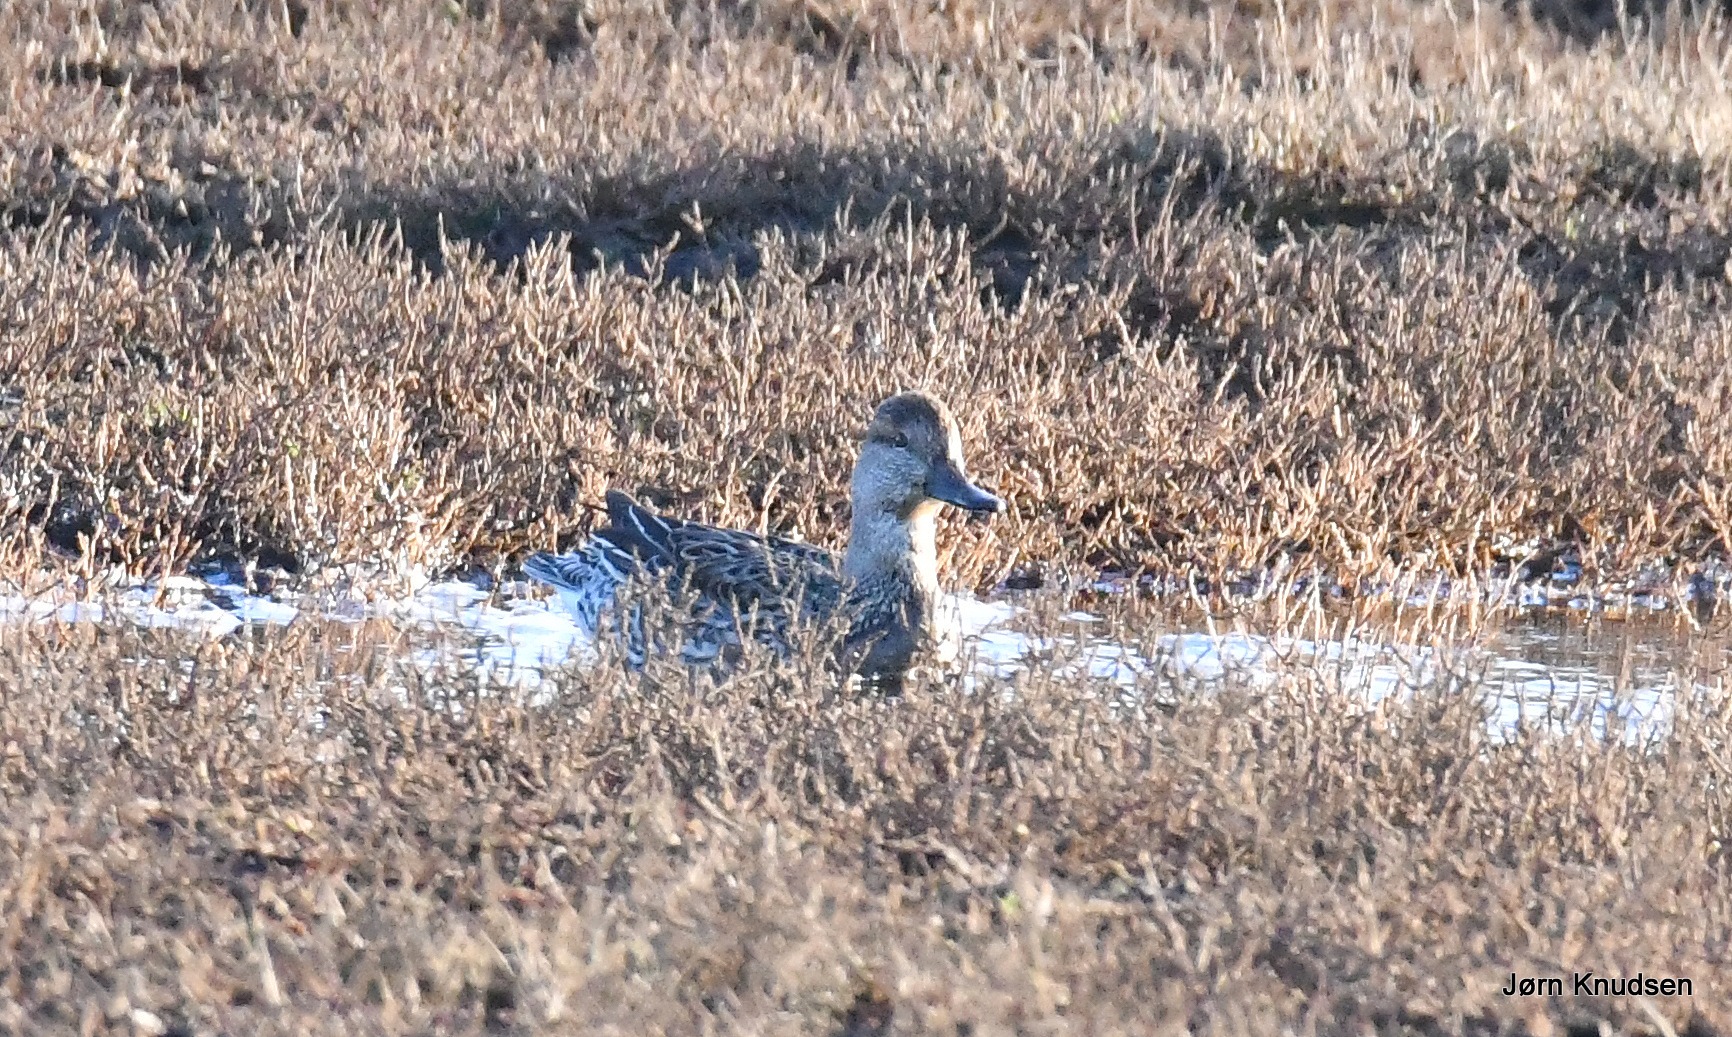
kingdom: Animalia
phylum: Chordata
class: Aves
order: Anseriformes
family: Anatidae
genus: Anas
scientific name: Anas crecca
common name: Krikand
